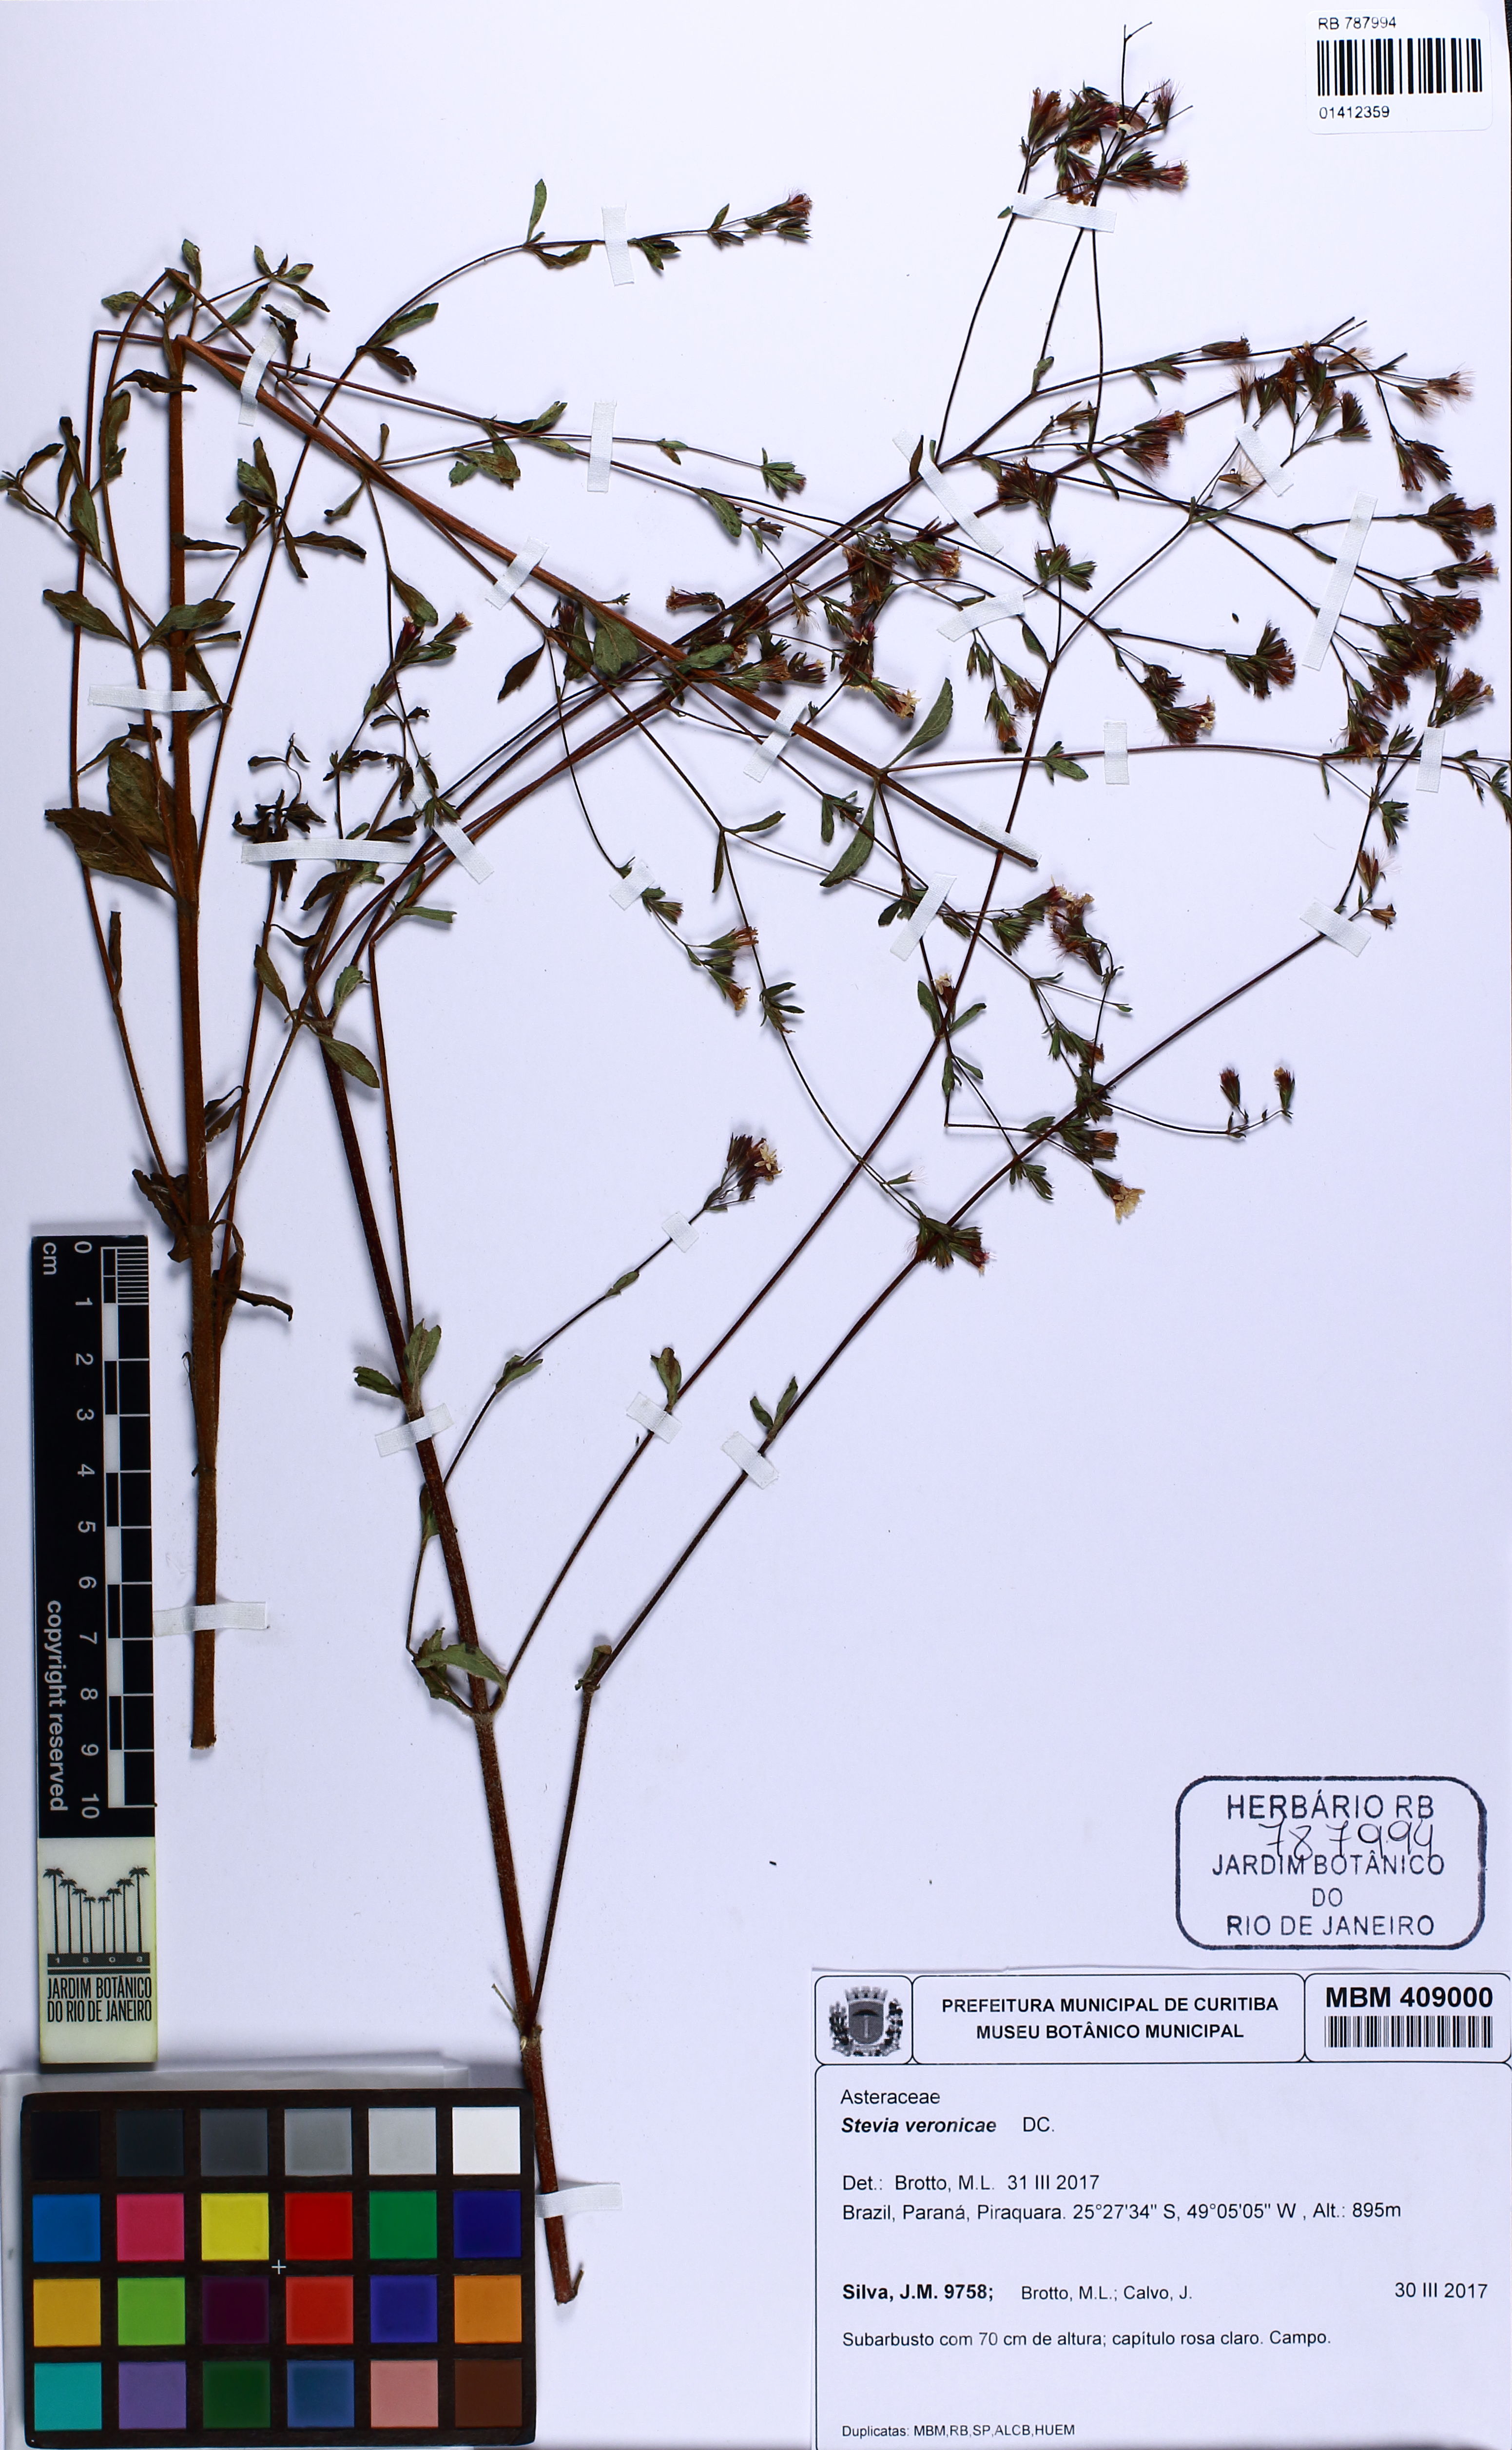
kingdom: Plantae
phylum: Tracheophyta
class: Magnoliopsida
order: Asterales
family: Asteraceae
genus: Stevia
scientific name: Stevia veronicae
